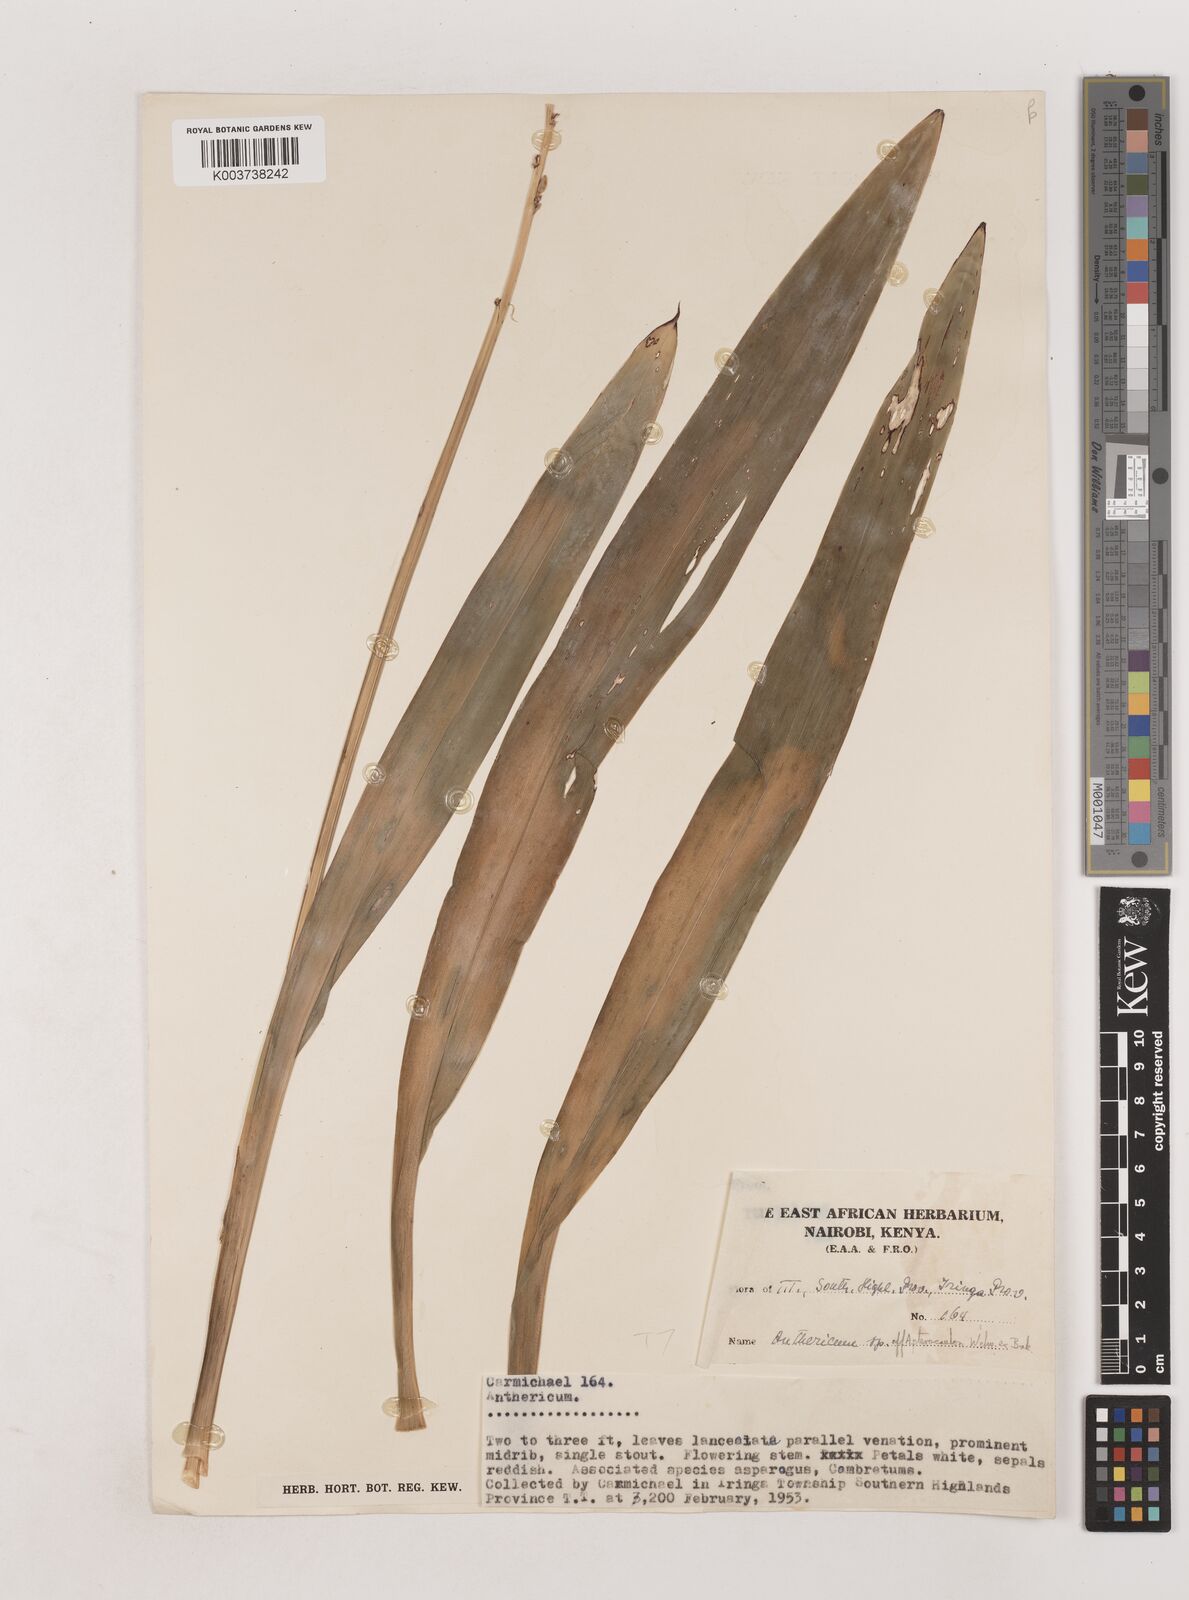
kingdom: Plantae
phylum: Tracheophyta
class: Liliopsida
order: Asparagales
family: Asparagaceae
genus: Chlorophytum
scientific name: Chlorophytum cameronii
